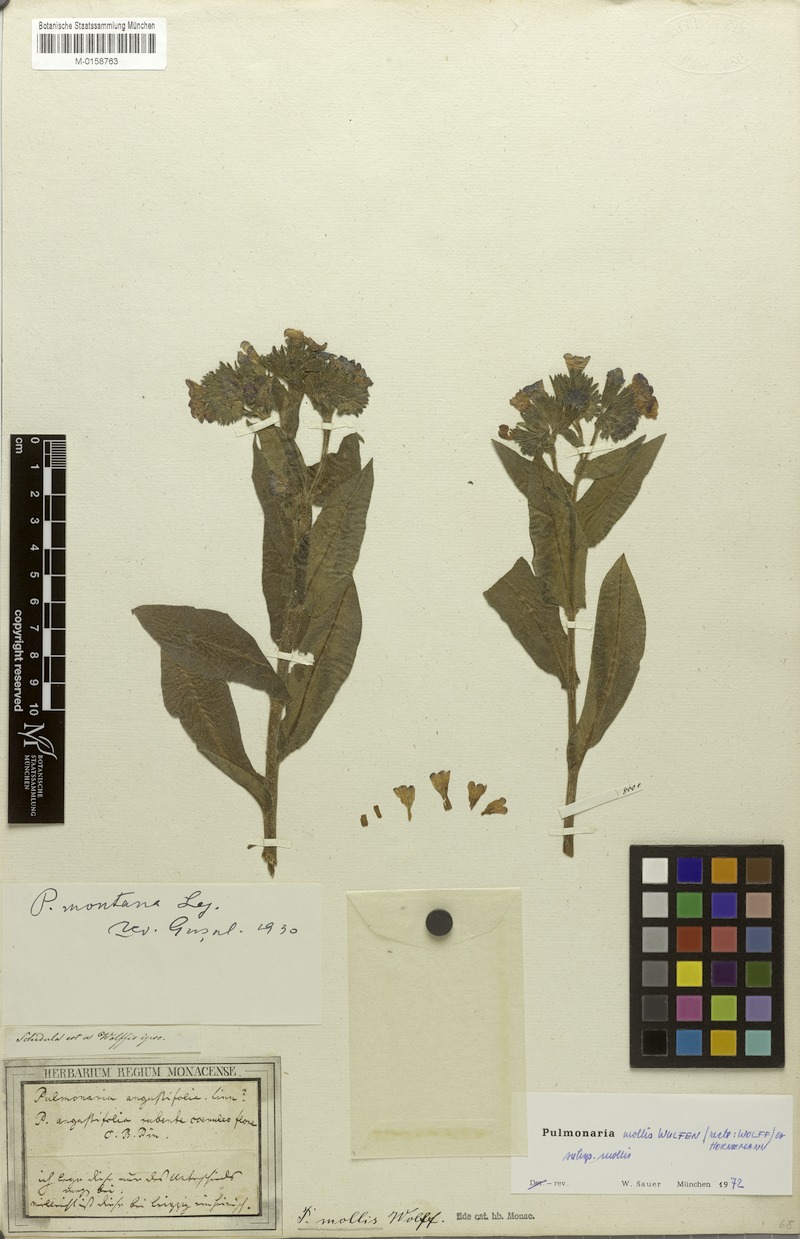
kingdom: Plantae
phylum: Tracheophyta
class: Magnoliopsida
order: Boraginales
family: Boraginaceae
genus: Pulmonaria
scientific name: Pulmonaria mollis
